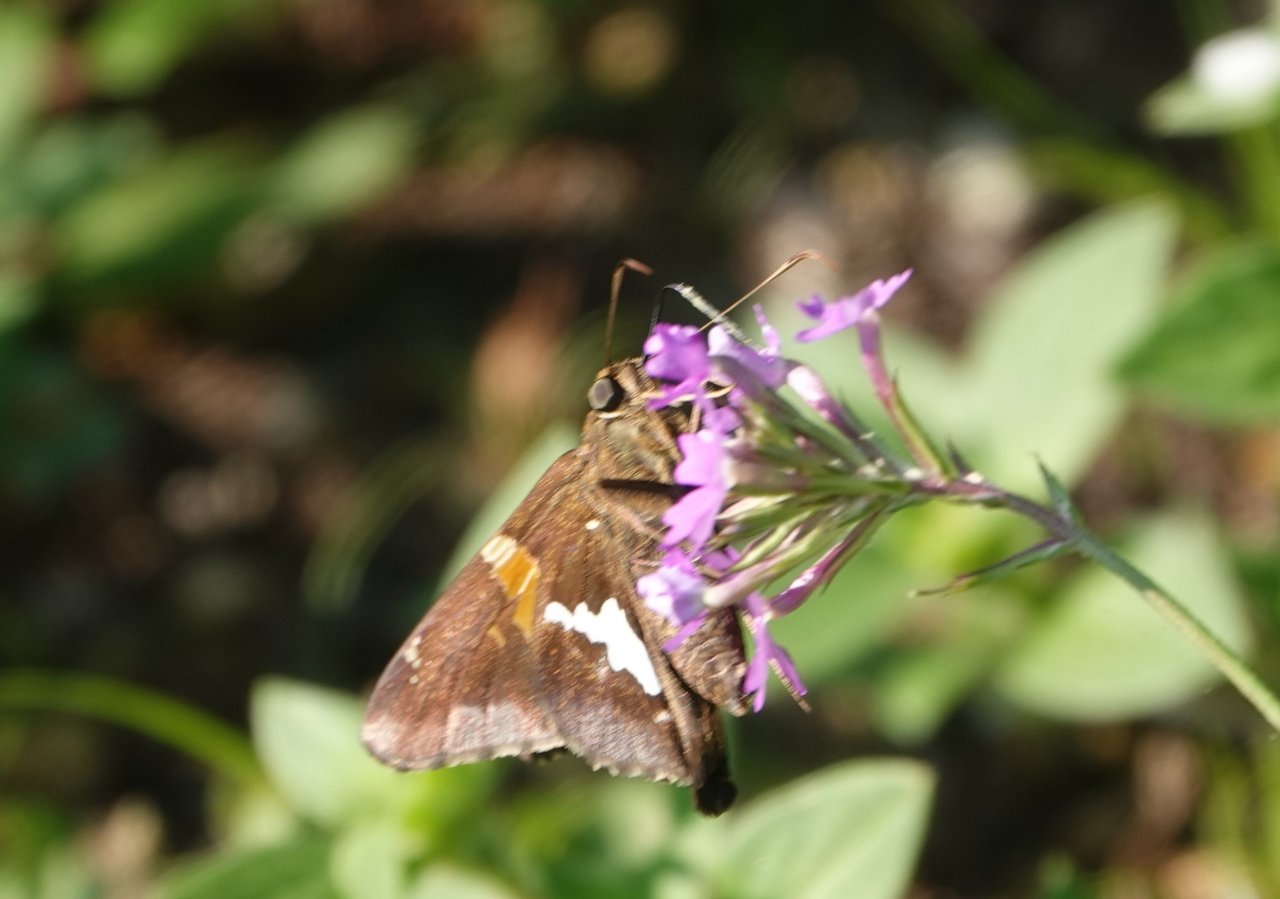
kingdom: Animalia
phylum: Arthropoda
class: Insecta
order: Lepidoptera
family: Hesperiidae
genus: Epargyreus
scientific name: Epargyreus clarus
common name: Silver-spotted Skipper
